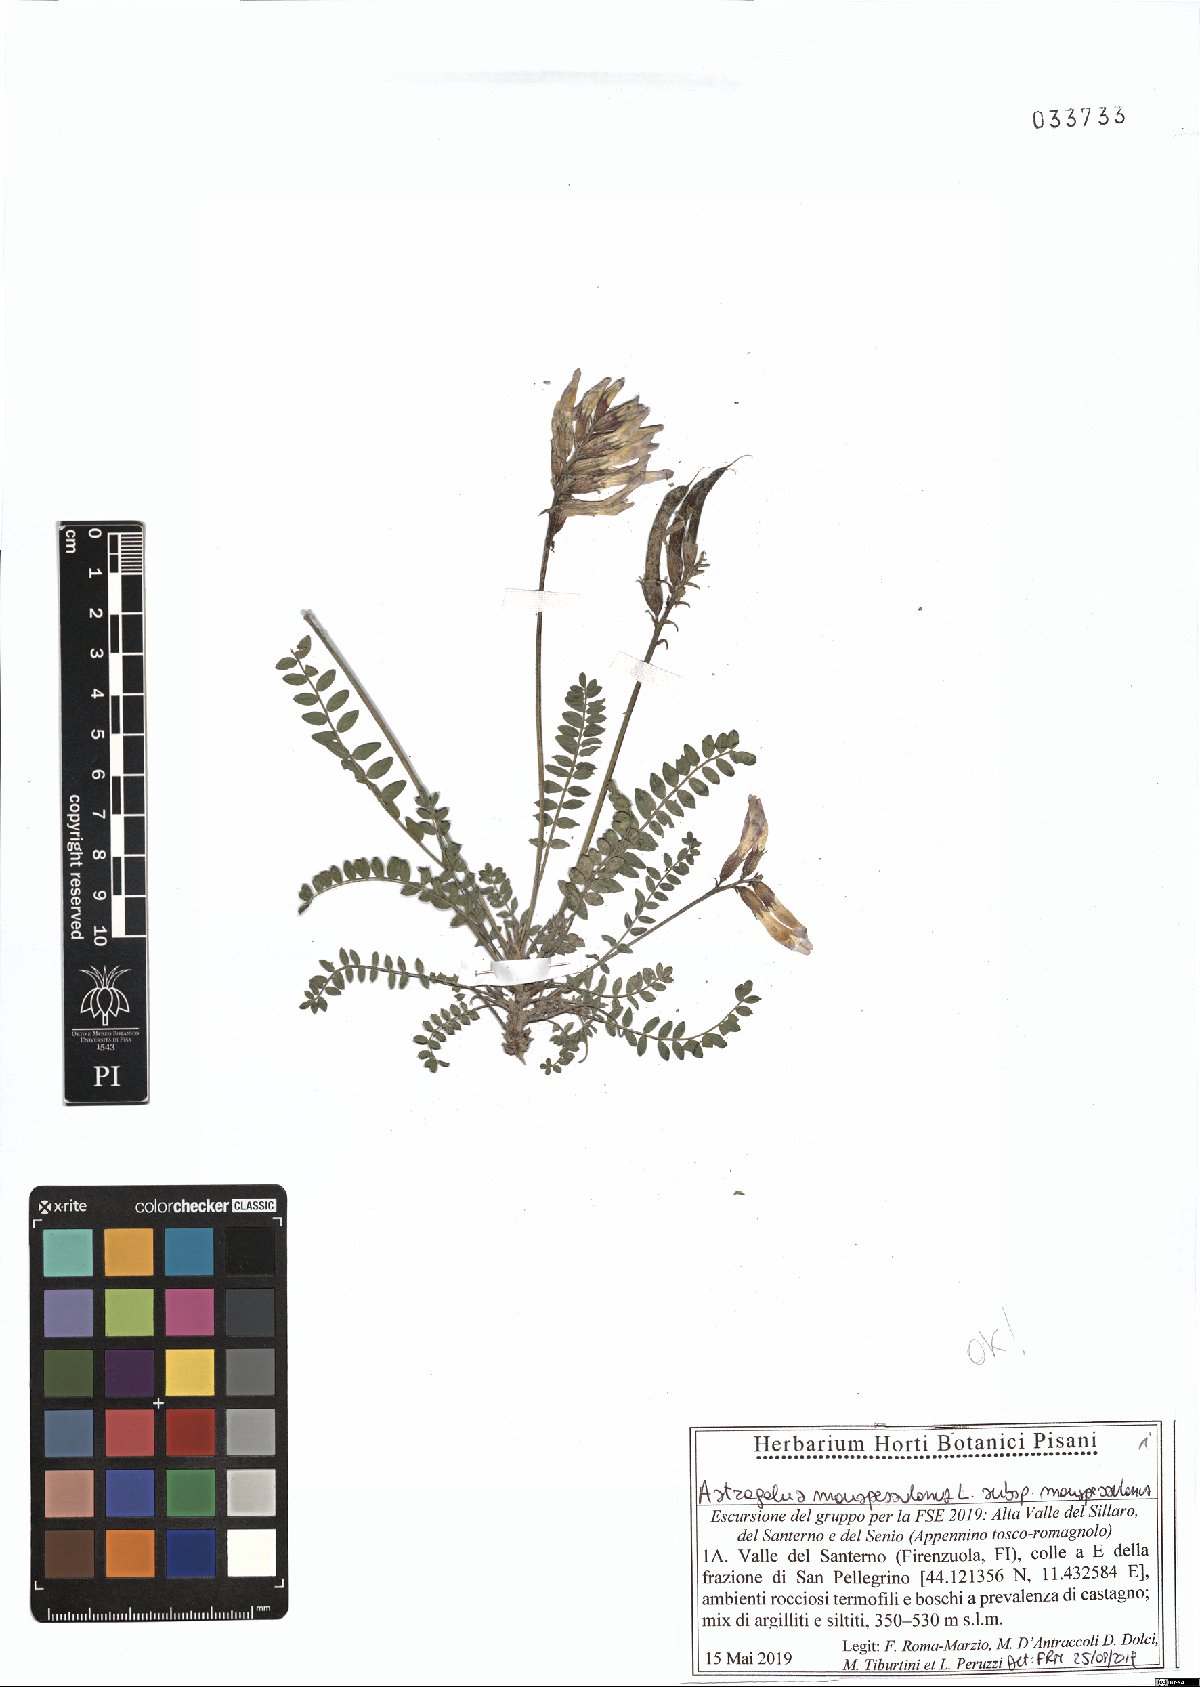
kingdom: Plantae
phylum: Tracheophyta
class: Magnoliopsida
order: Fabales
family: Fabaceae
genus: Astragalus
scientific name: Astragalus monspessulanus
